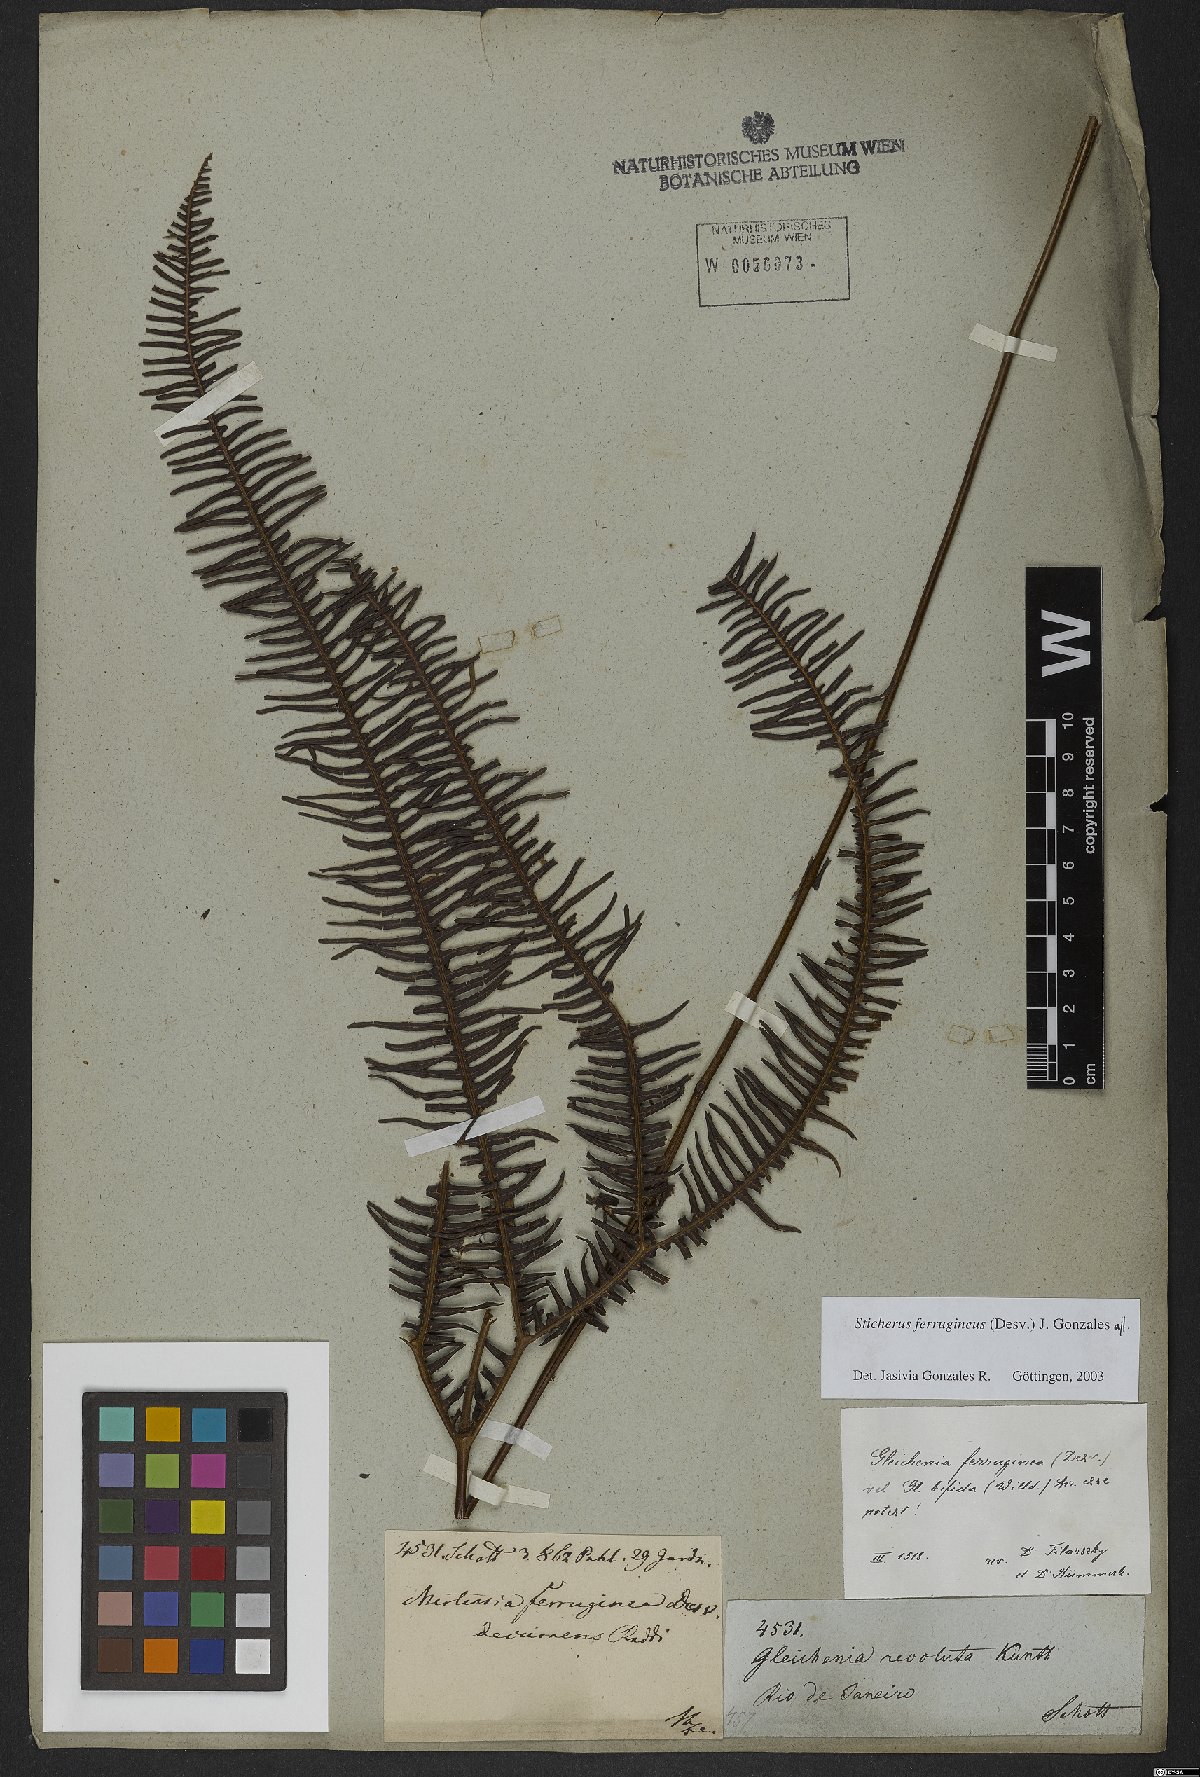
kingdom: Plantae
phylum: Tracheophyta
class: Polypodiopsida
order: Gleicheniales
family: Gleicheniaceae
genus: Sticherus
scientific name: Sticherus ferrugineus
